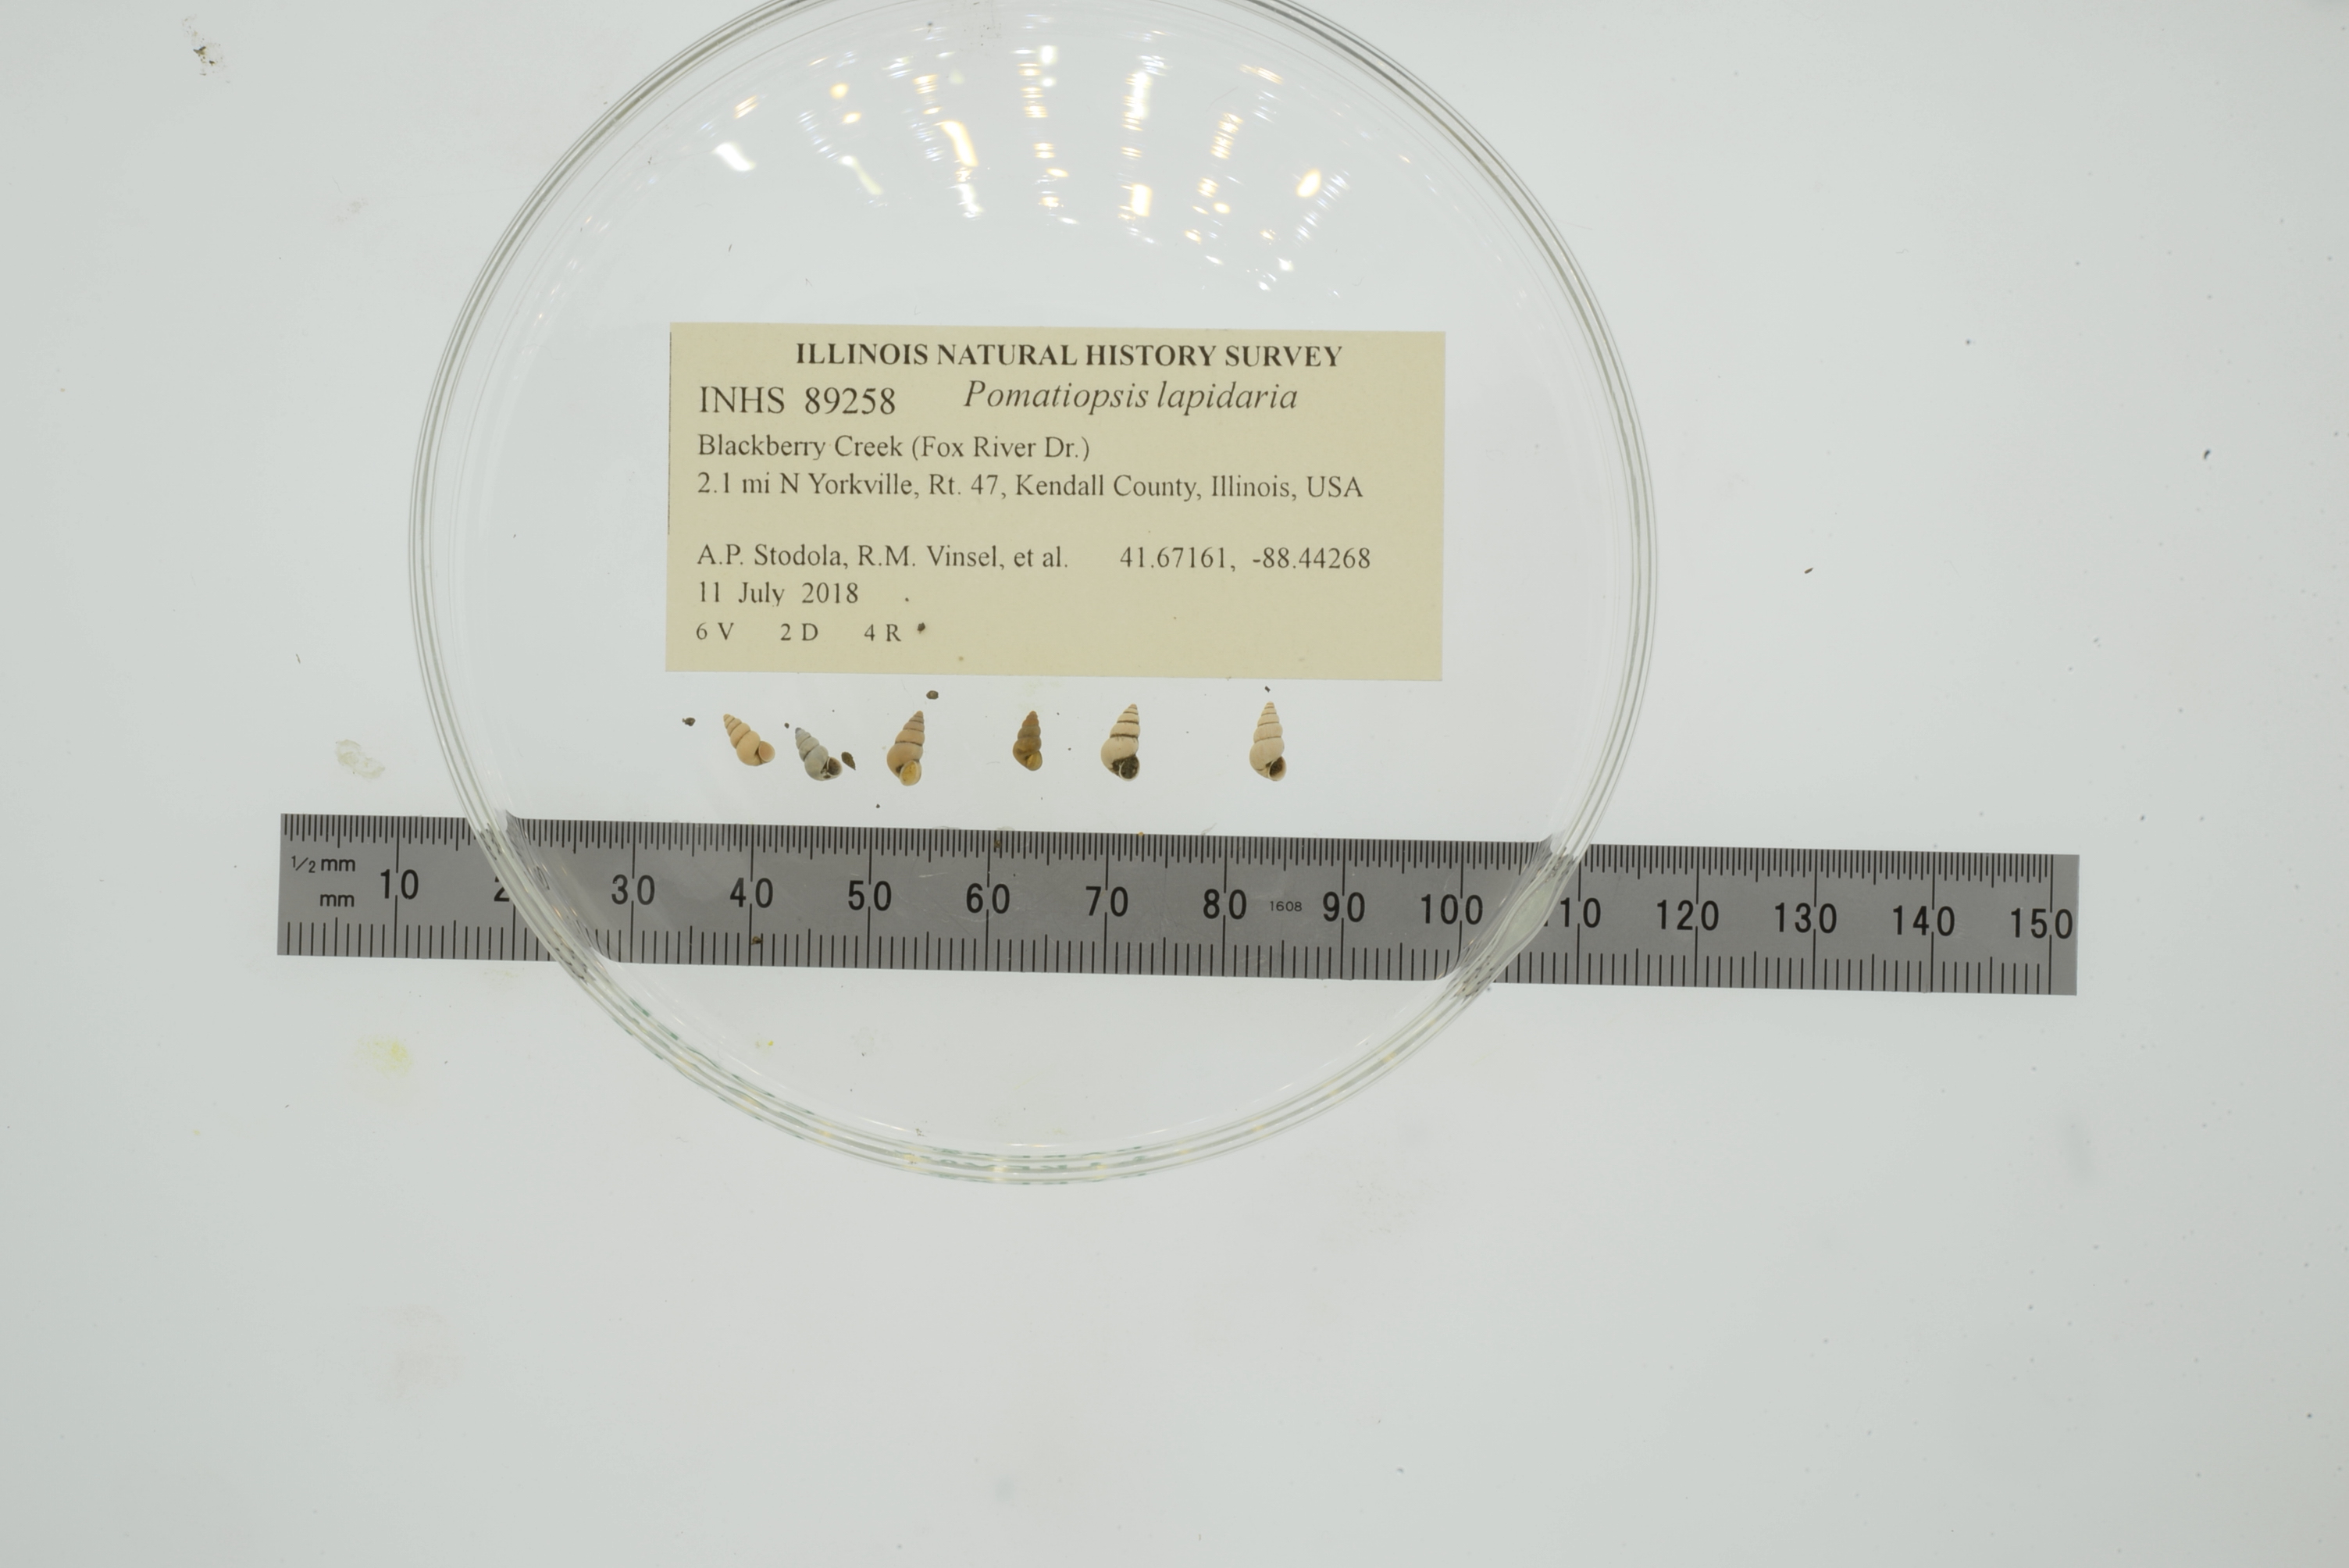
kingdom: Animalia
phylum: Mollusca
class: Gastropoda
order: Littorinimorpha
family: Pomatiopsidae
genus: Pomatiopsis
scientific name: Pomatiopsis lapidaria
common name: Slender walker
